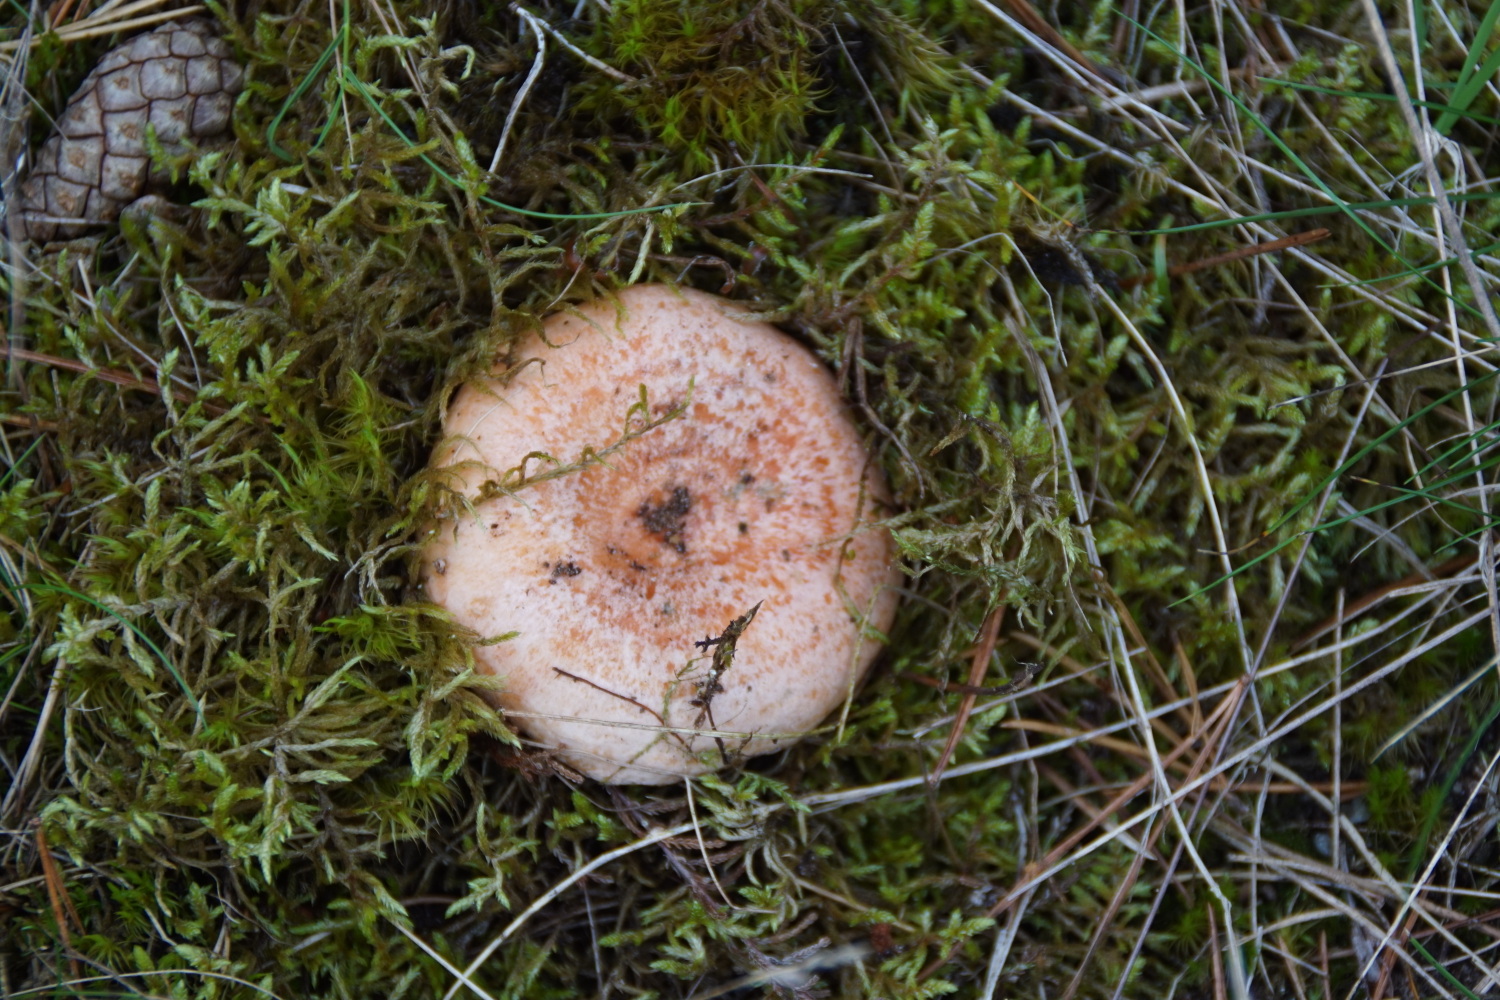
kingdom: Fungi
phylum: Basidiomycota
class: Agaricomycetes
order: Russulales
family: Russulaceae
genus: Lactarius
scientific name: Lactarius deliciosus
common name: velsmagende mælkehat
